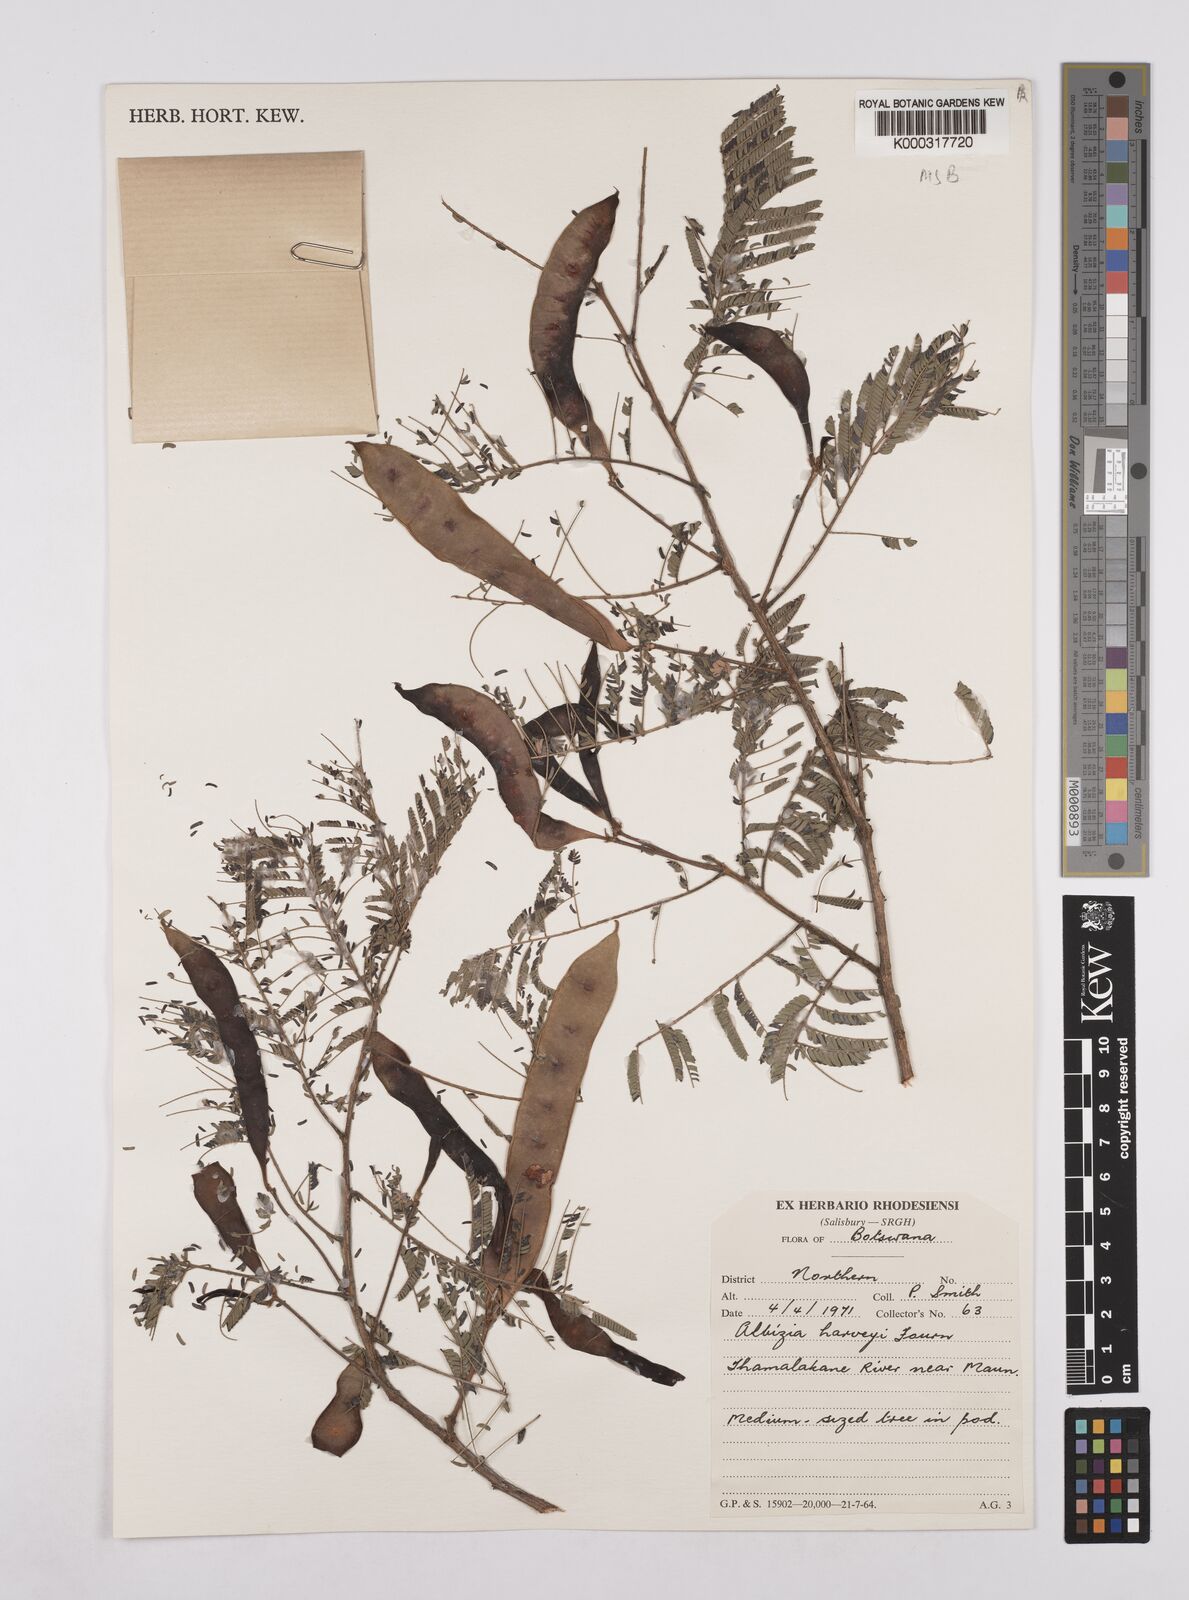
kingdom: Plantae
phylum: Tracheophyta
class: Magnoliopsida
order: Fabales
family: Fabaceae
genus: Albizia
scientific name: Albizia harveyi
